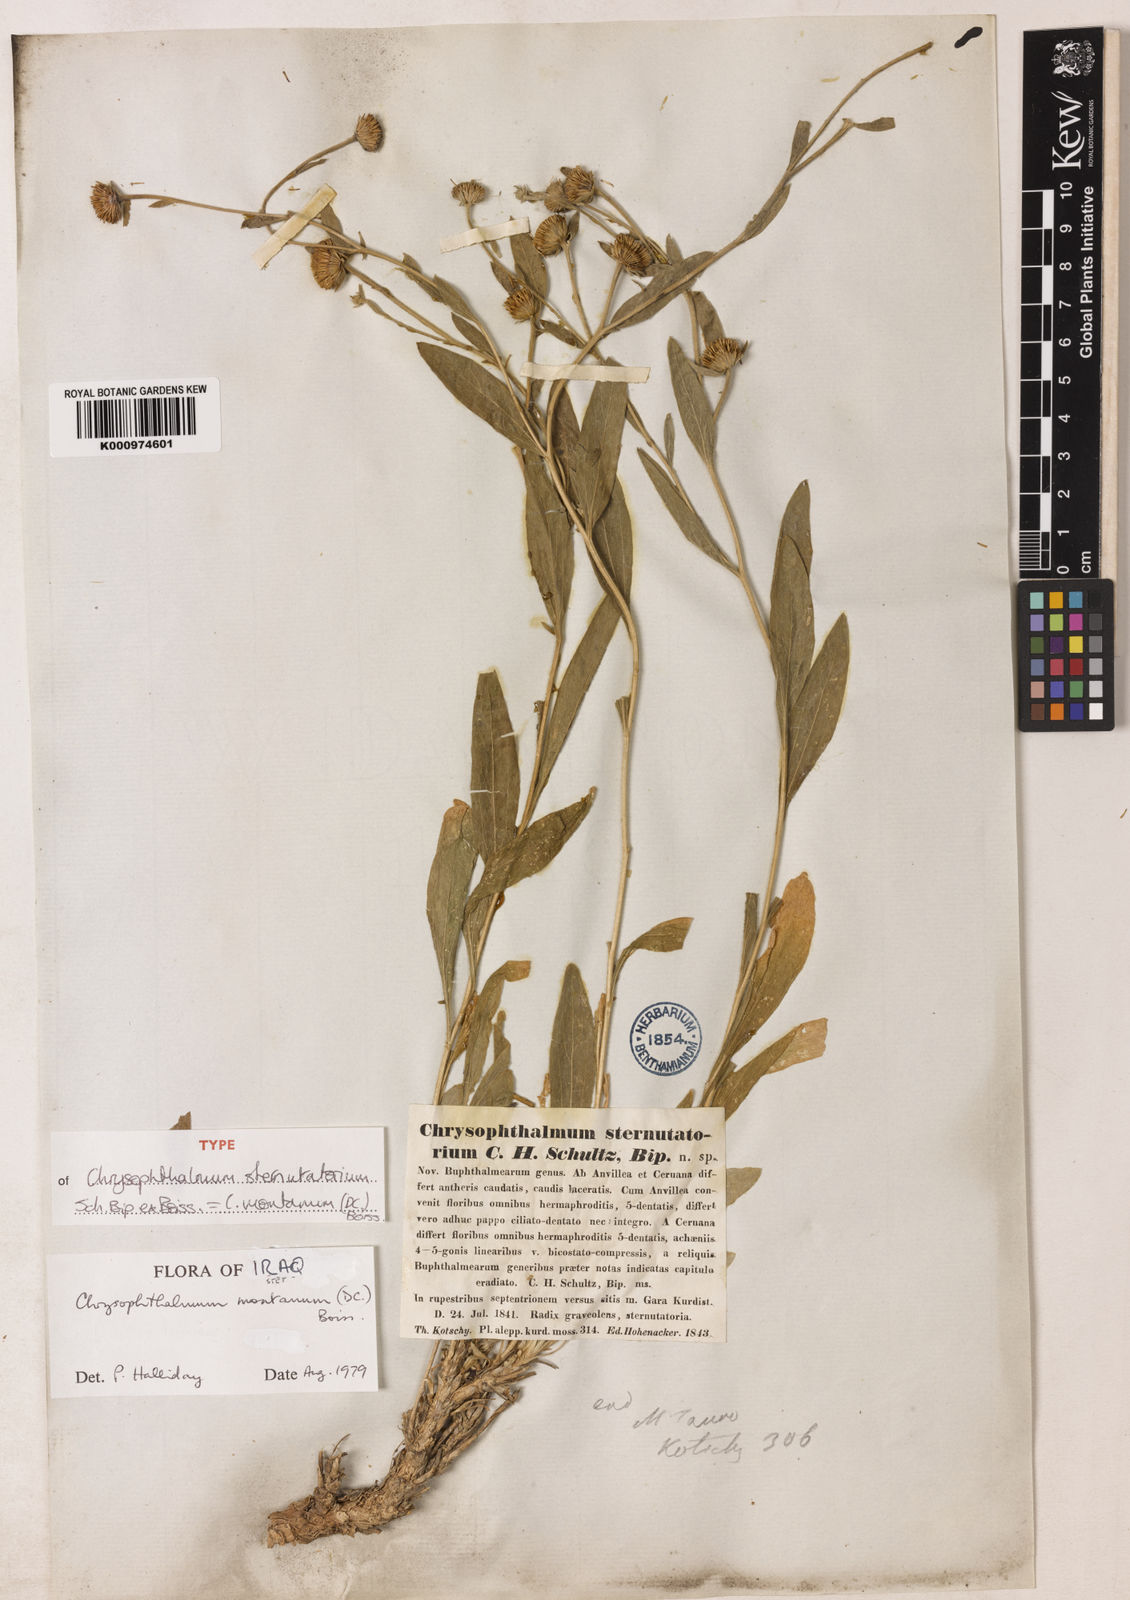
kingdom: Plantae
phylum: Tracheophyta
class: Magnoliopsida
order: Asterales
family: Asteraceae
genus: Chrysophtalmum
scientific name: Chrysophtalmum montanum
